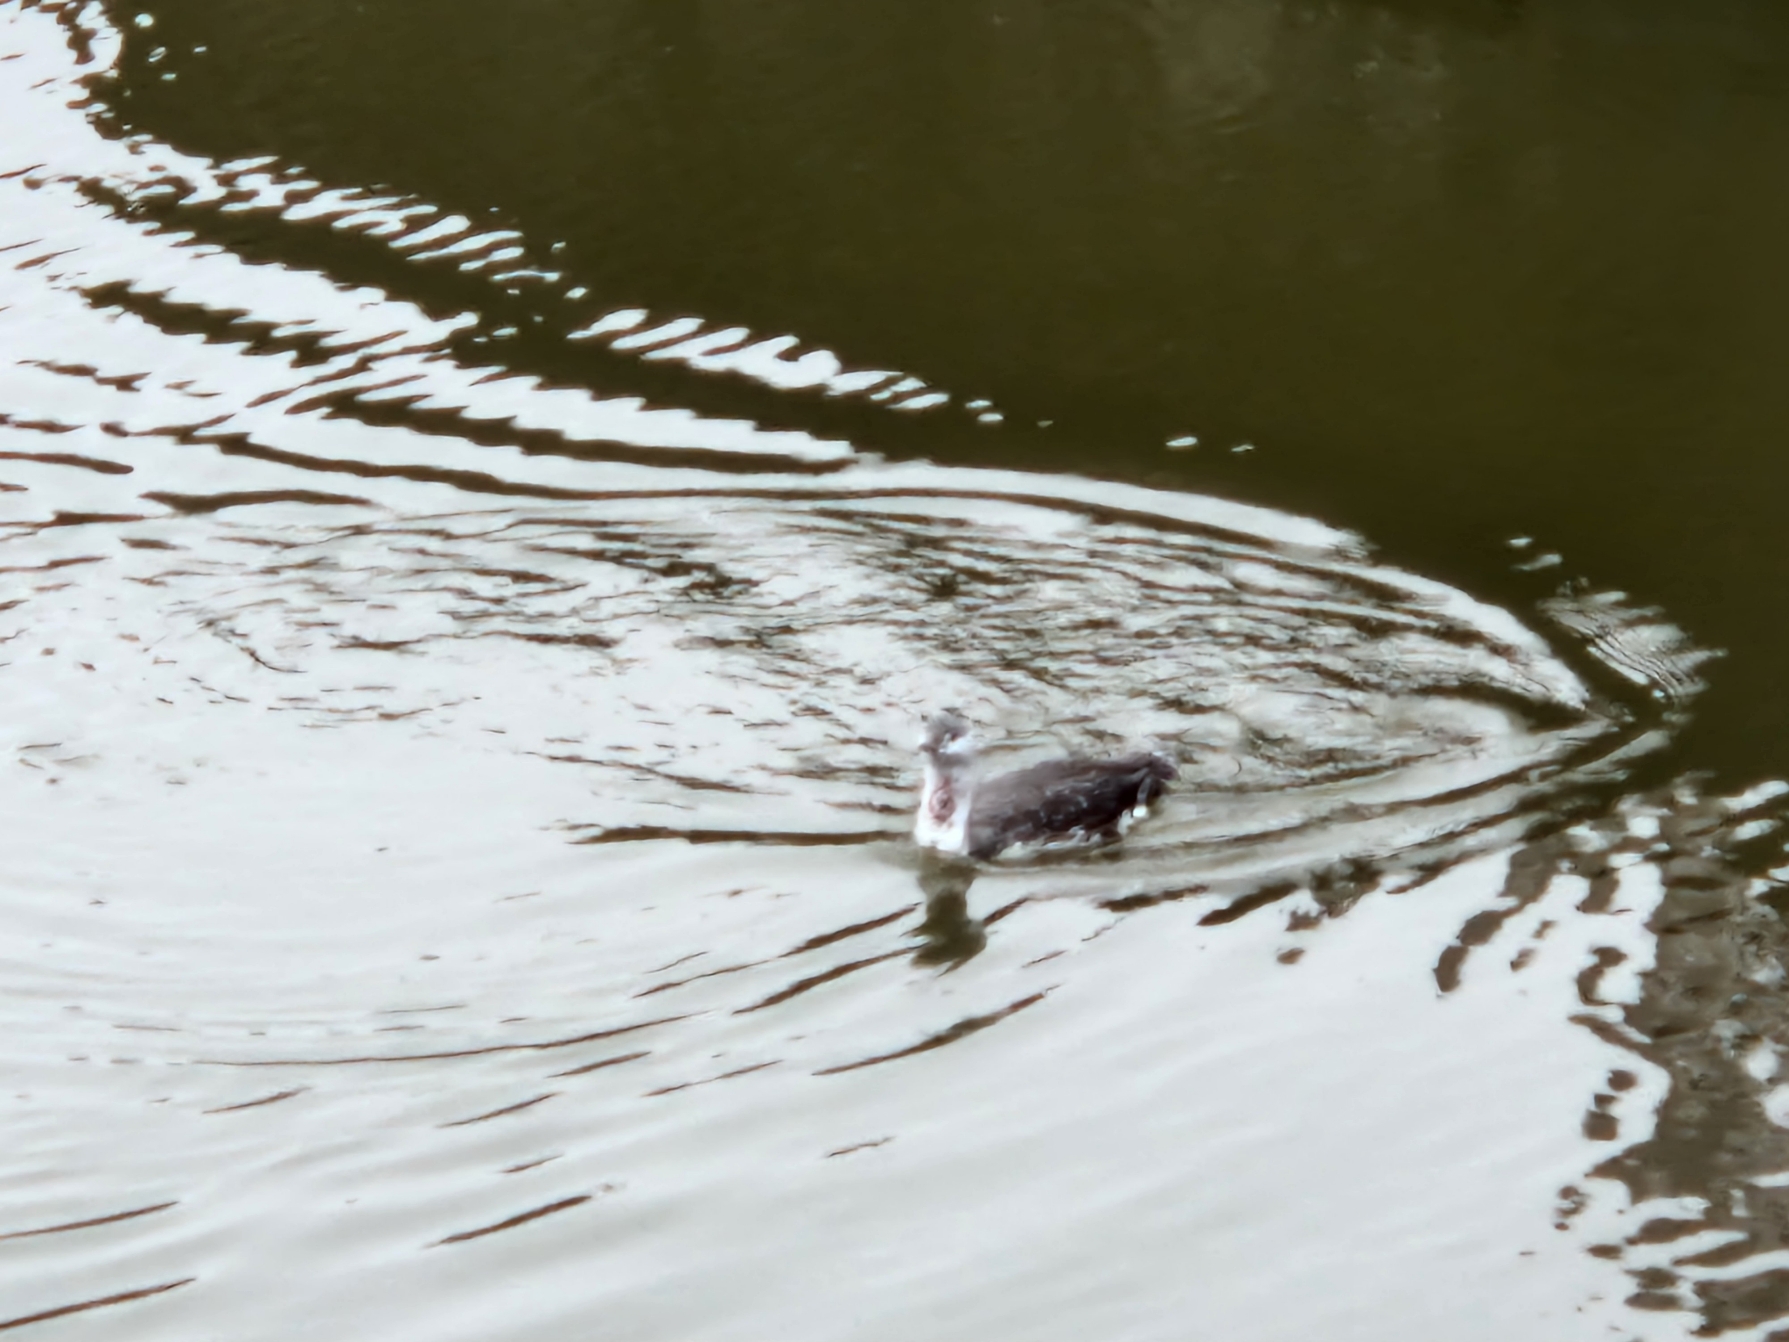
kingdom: Animalia
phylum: Chordata
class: Aves
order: Gaviiformes
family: Gaviidae
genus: Gavia
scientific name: Gavia stellata
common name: Rødstrubet lom
